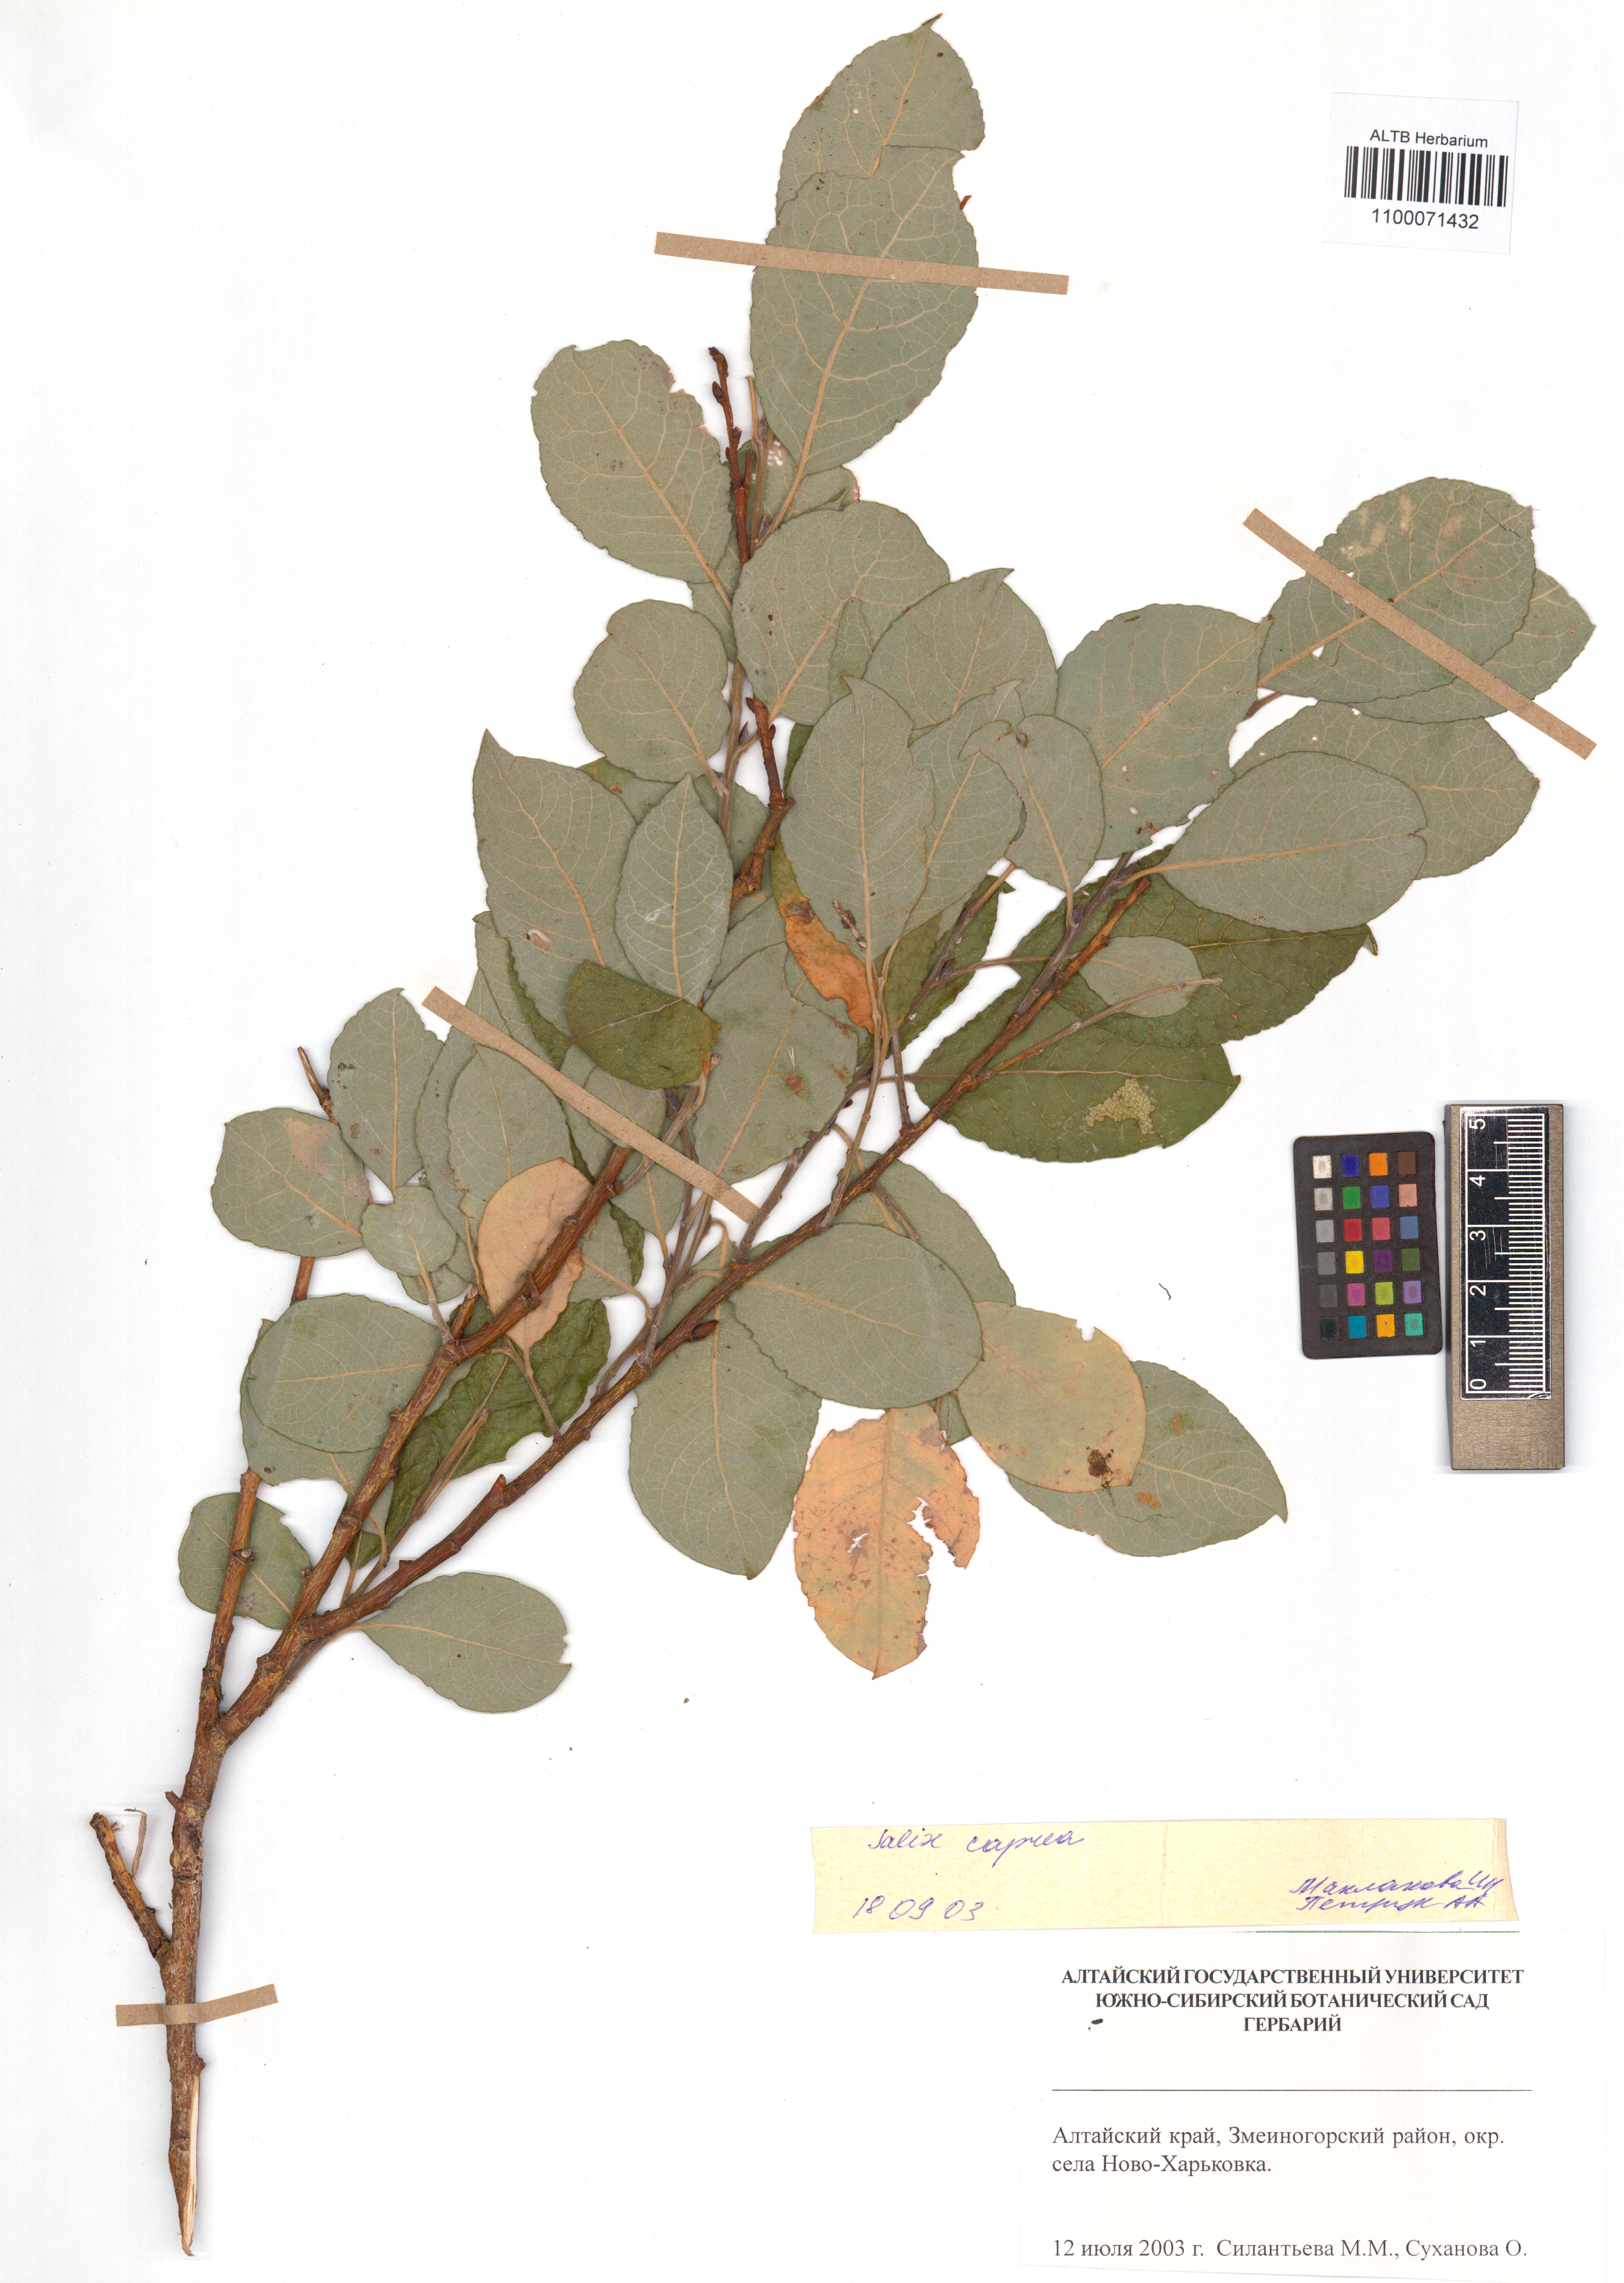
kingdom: Plantae
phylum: Tracheophyta
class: Magnoliopsida
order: Malpighiales
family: Salicaceae
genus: Salix
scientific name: Salix caprea
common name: Goat willow
